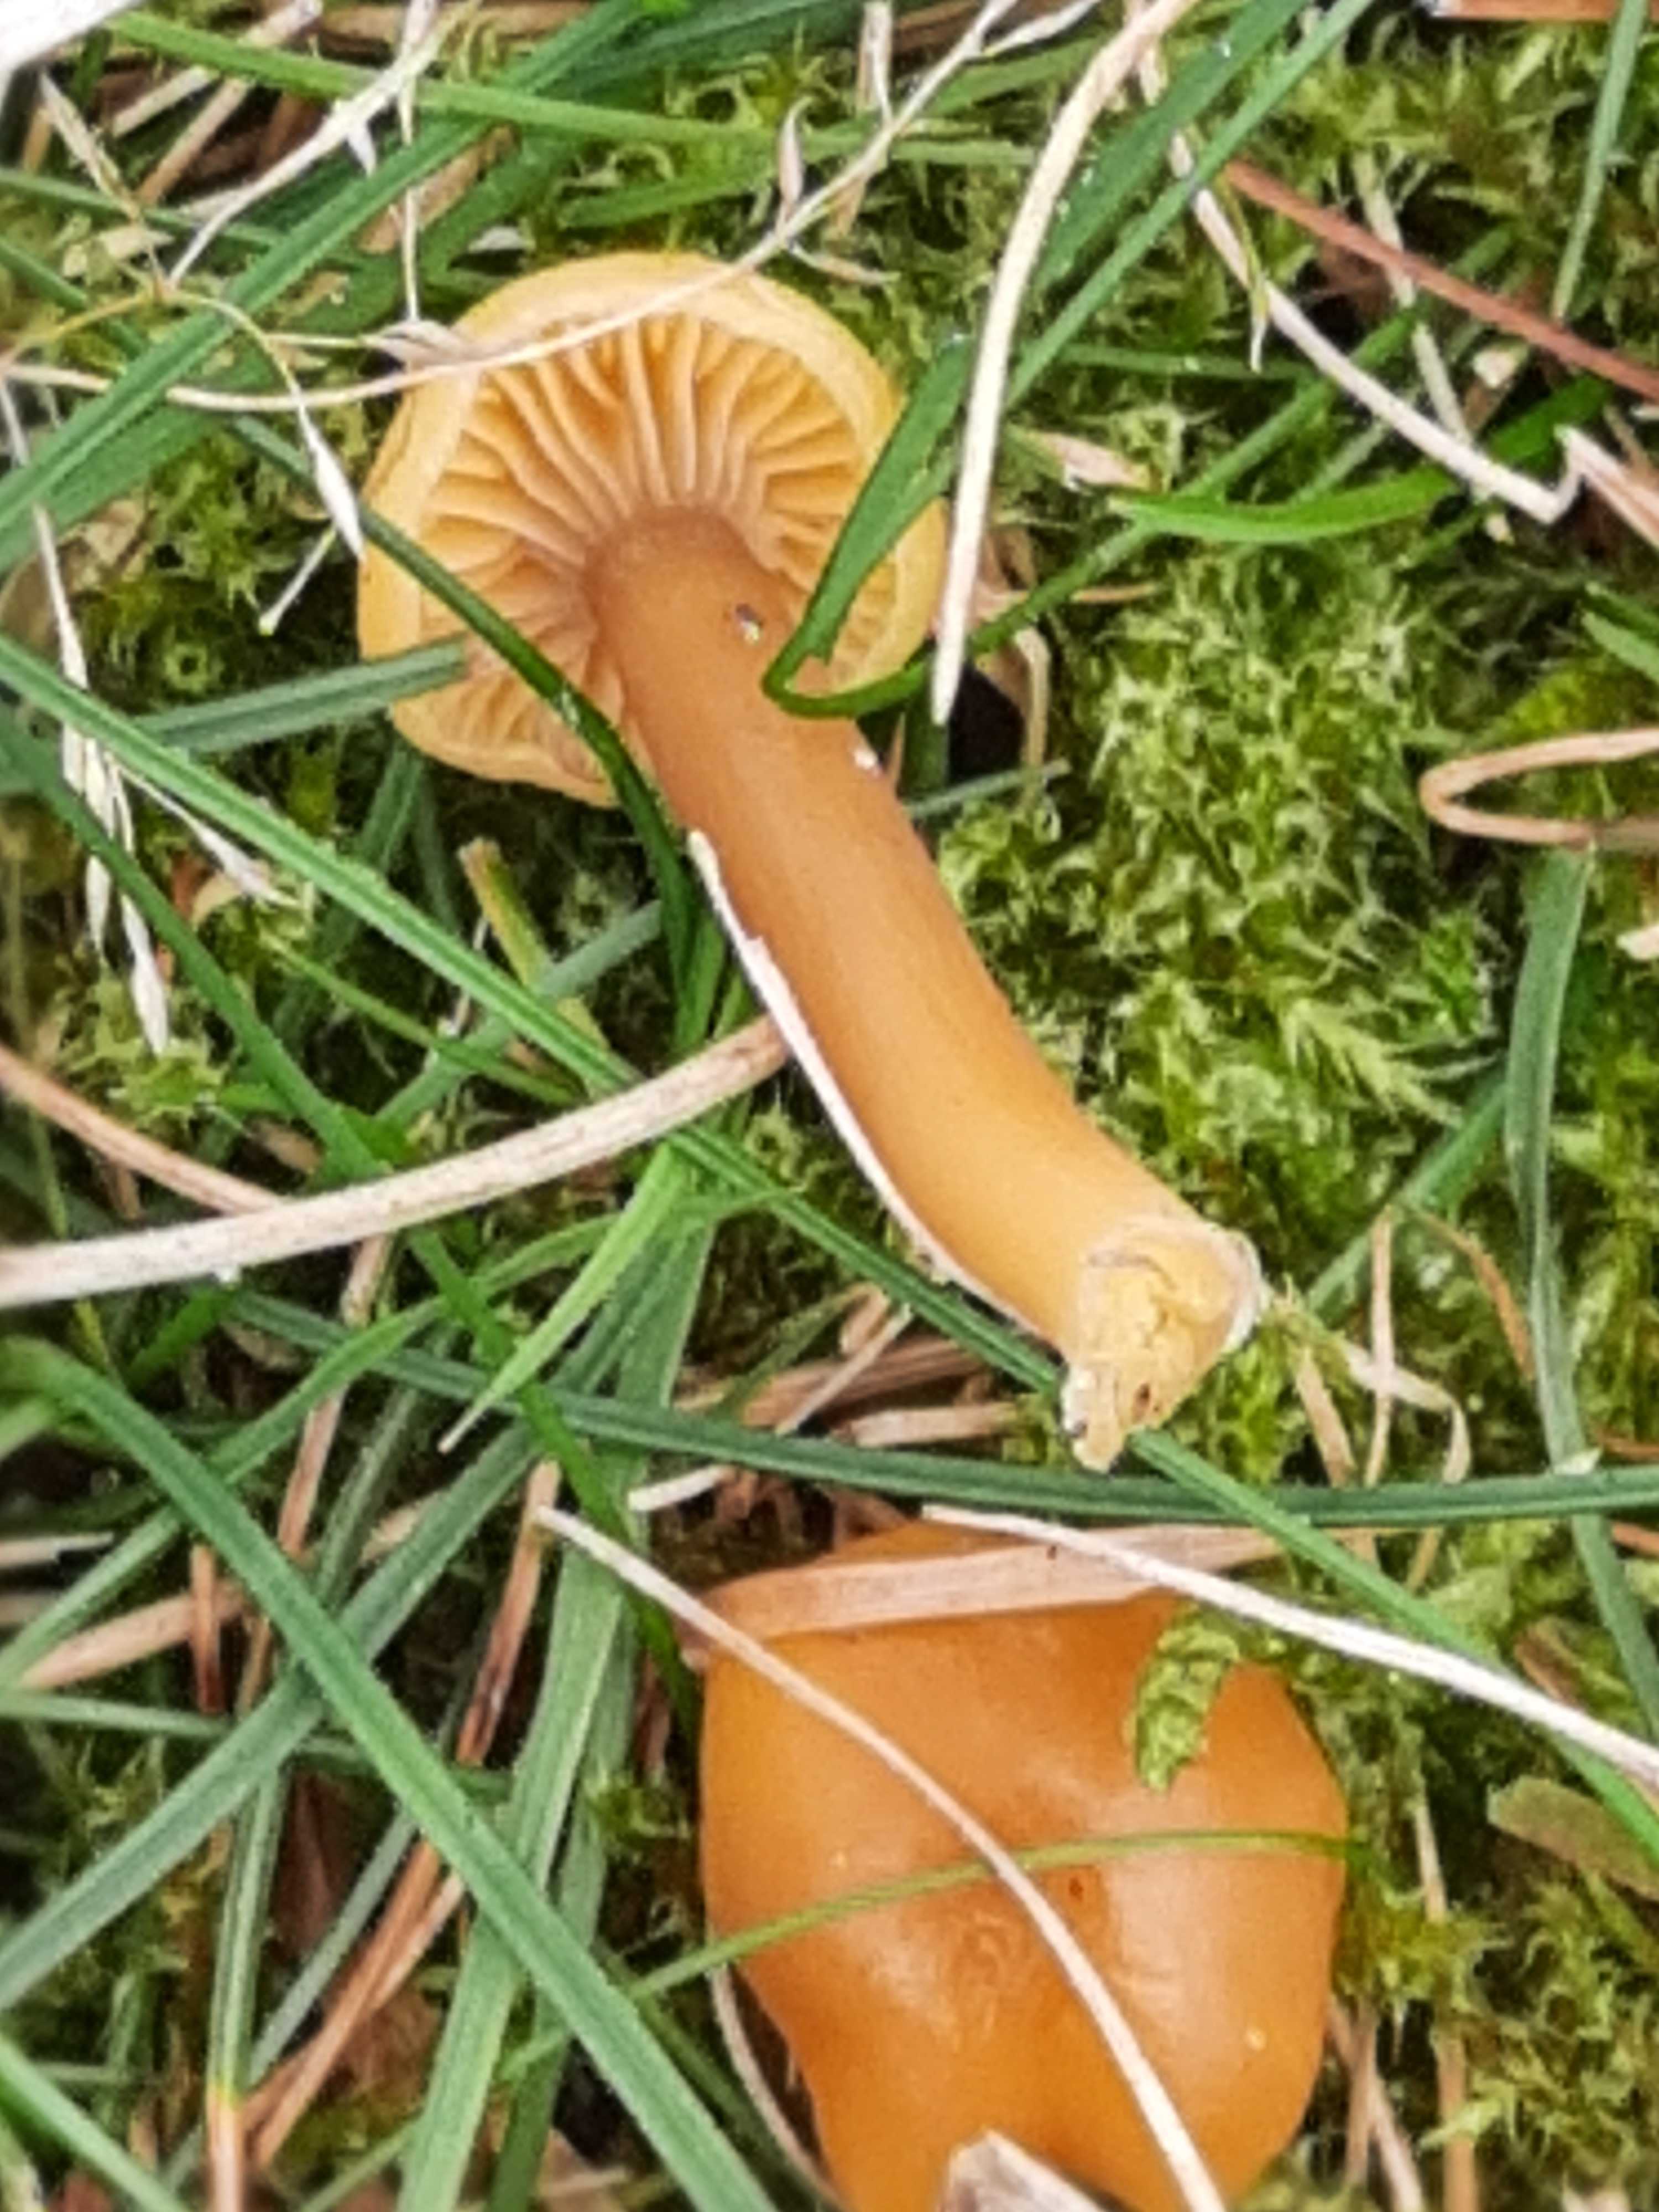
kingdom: Fungi
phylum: Basidiomycota
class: Agaricomycetes
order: Agaricales
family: Hygrophoraceae
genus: Gliophorus
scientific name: Gliophorus laetus
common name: brusk-vokshat
